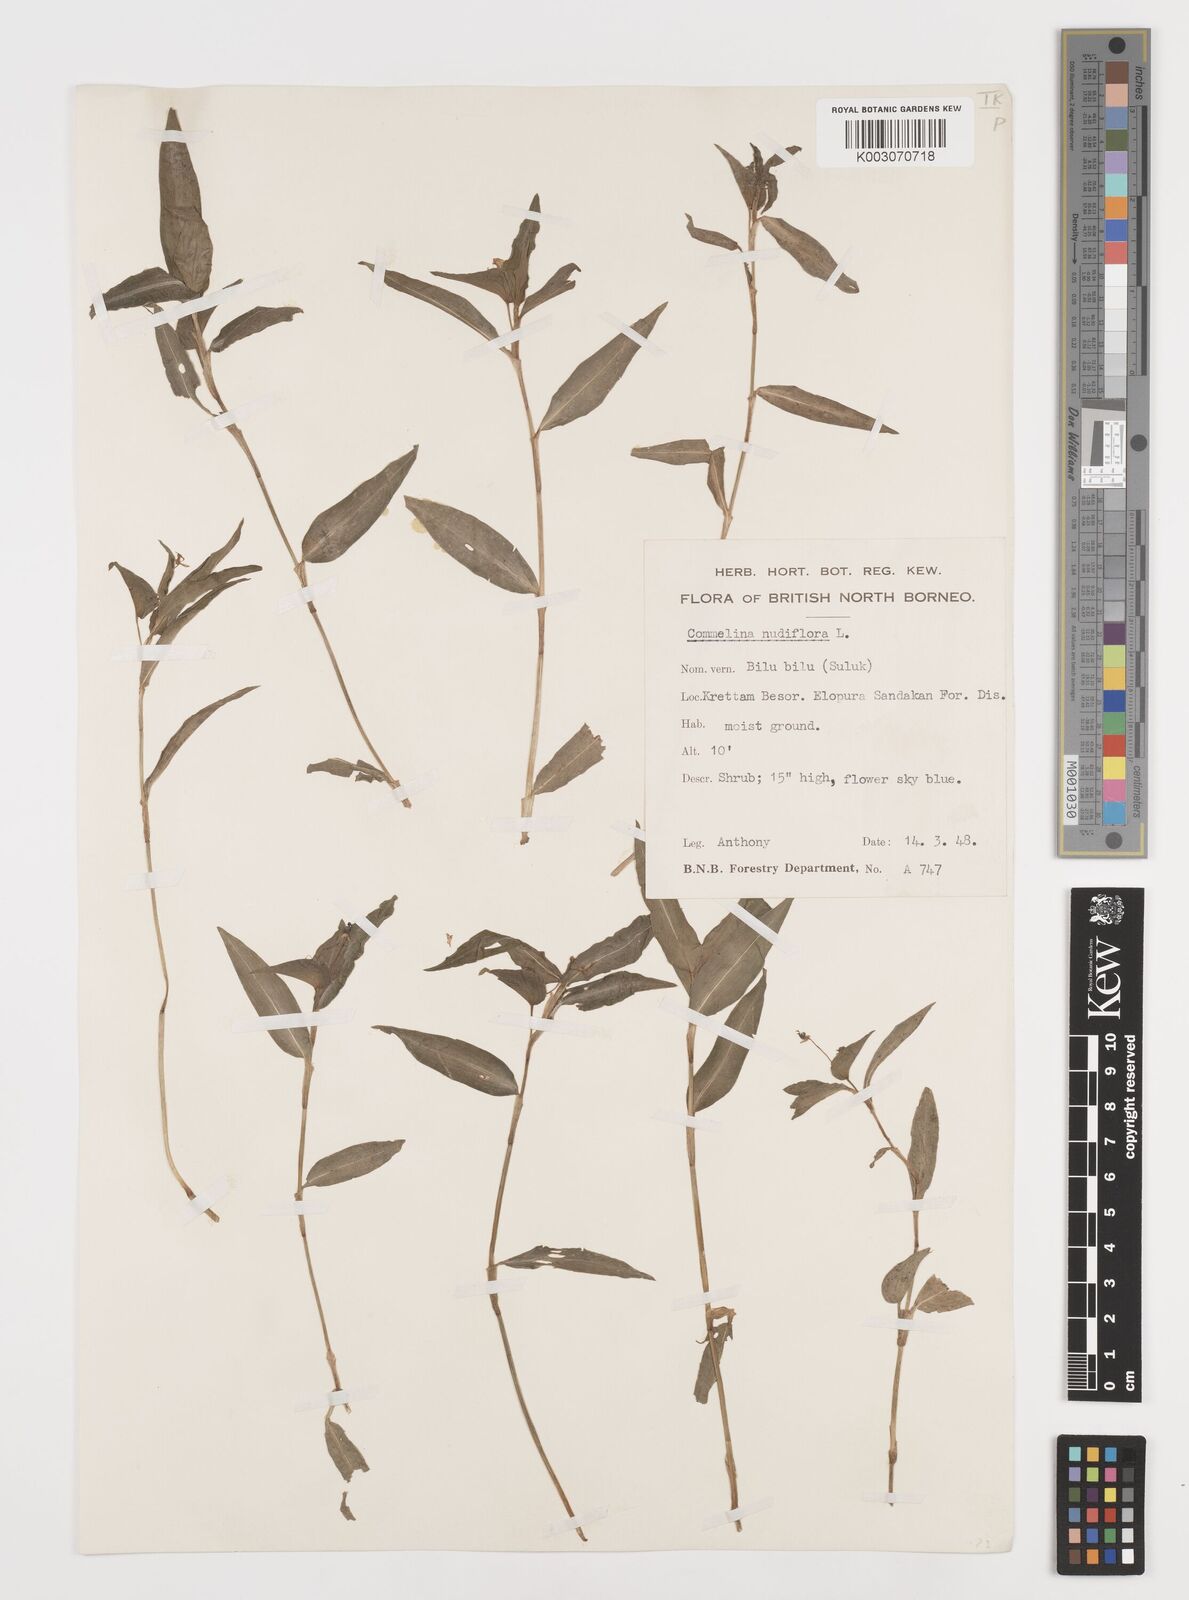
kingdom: Plantae
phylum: Tracheophyta
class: Liliopsida
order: Commelinales
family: Commelinaceae
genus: Commelina
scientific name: Commelina clavata
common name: Willow leaved dayflower
